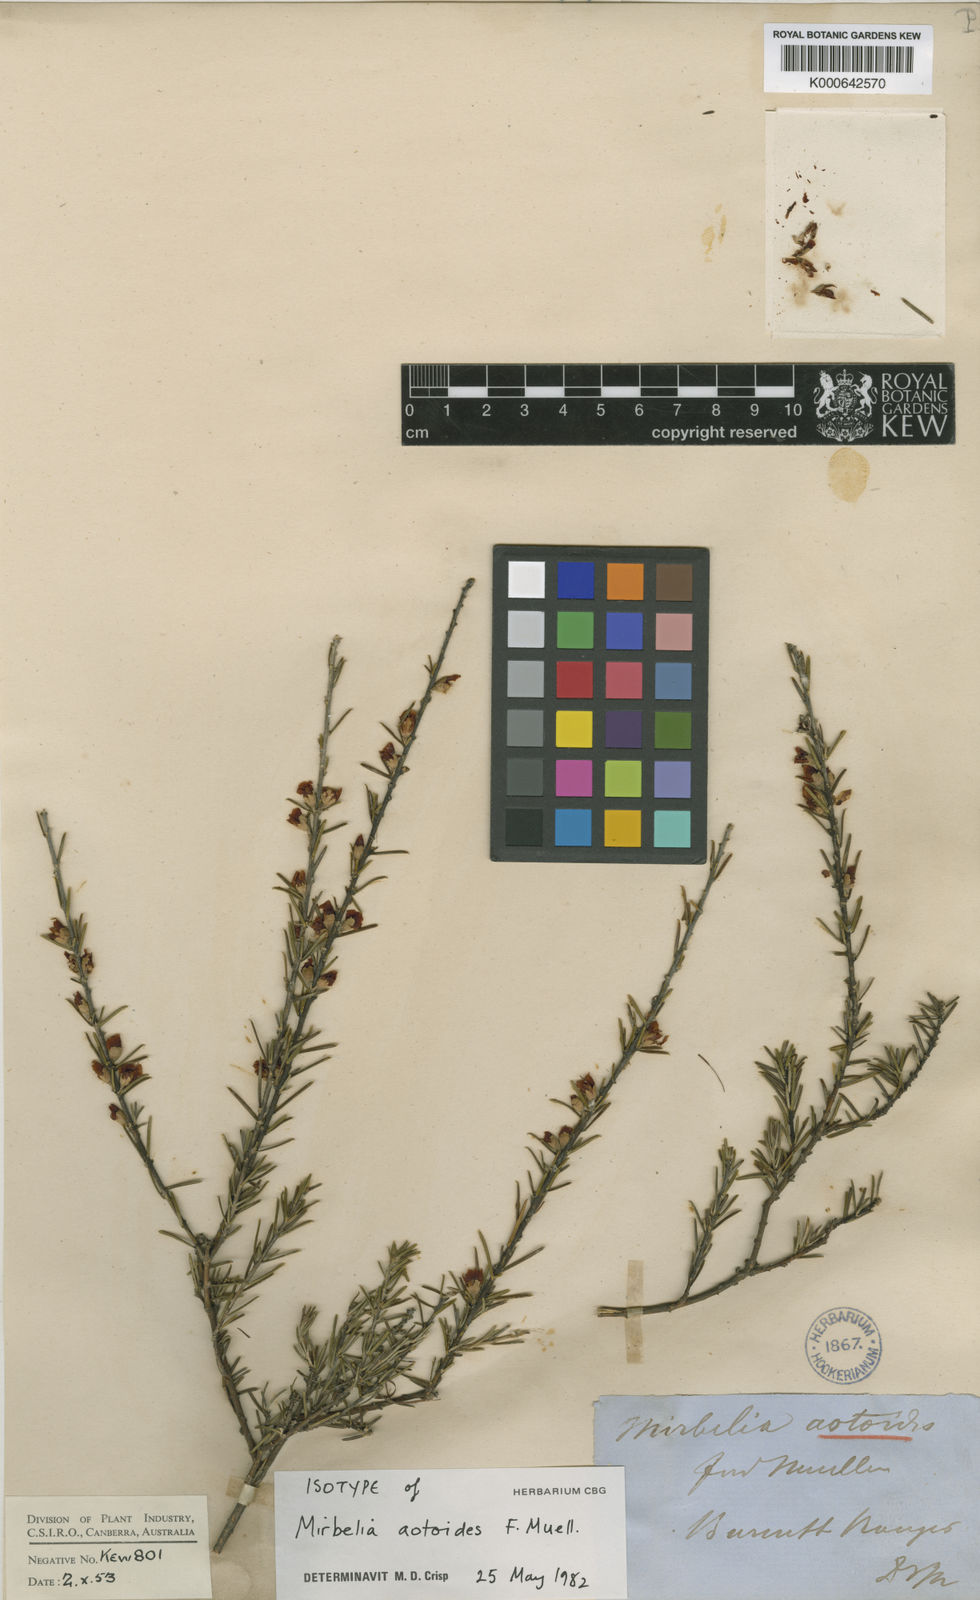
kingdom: Plantae
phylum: Tracheophyta
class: Magnoliopsida
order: Fabales
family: Fabaceae
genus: Mirbelia
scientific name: Mirbelia aotoides
